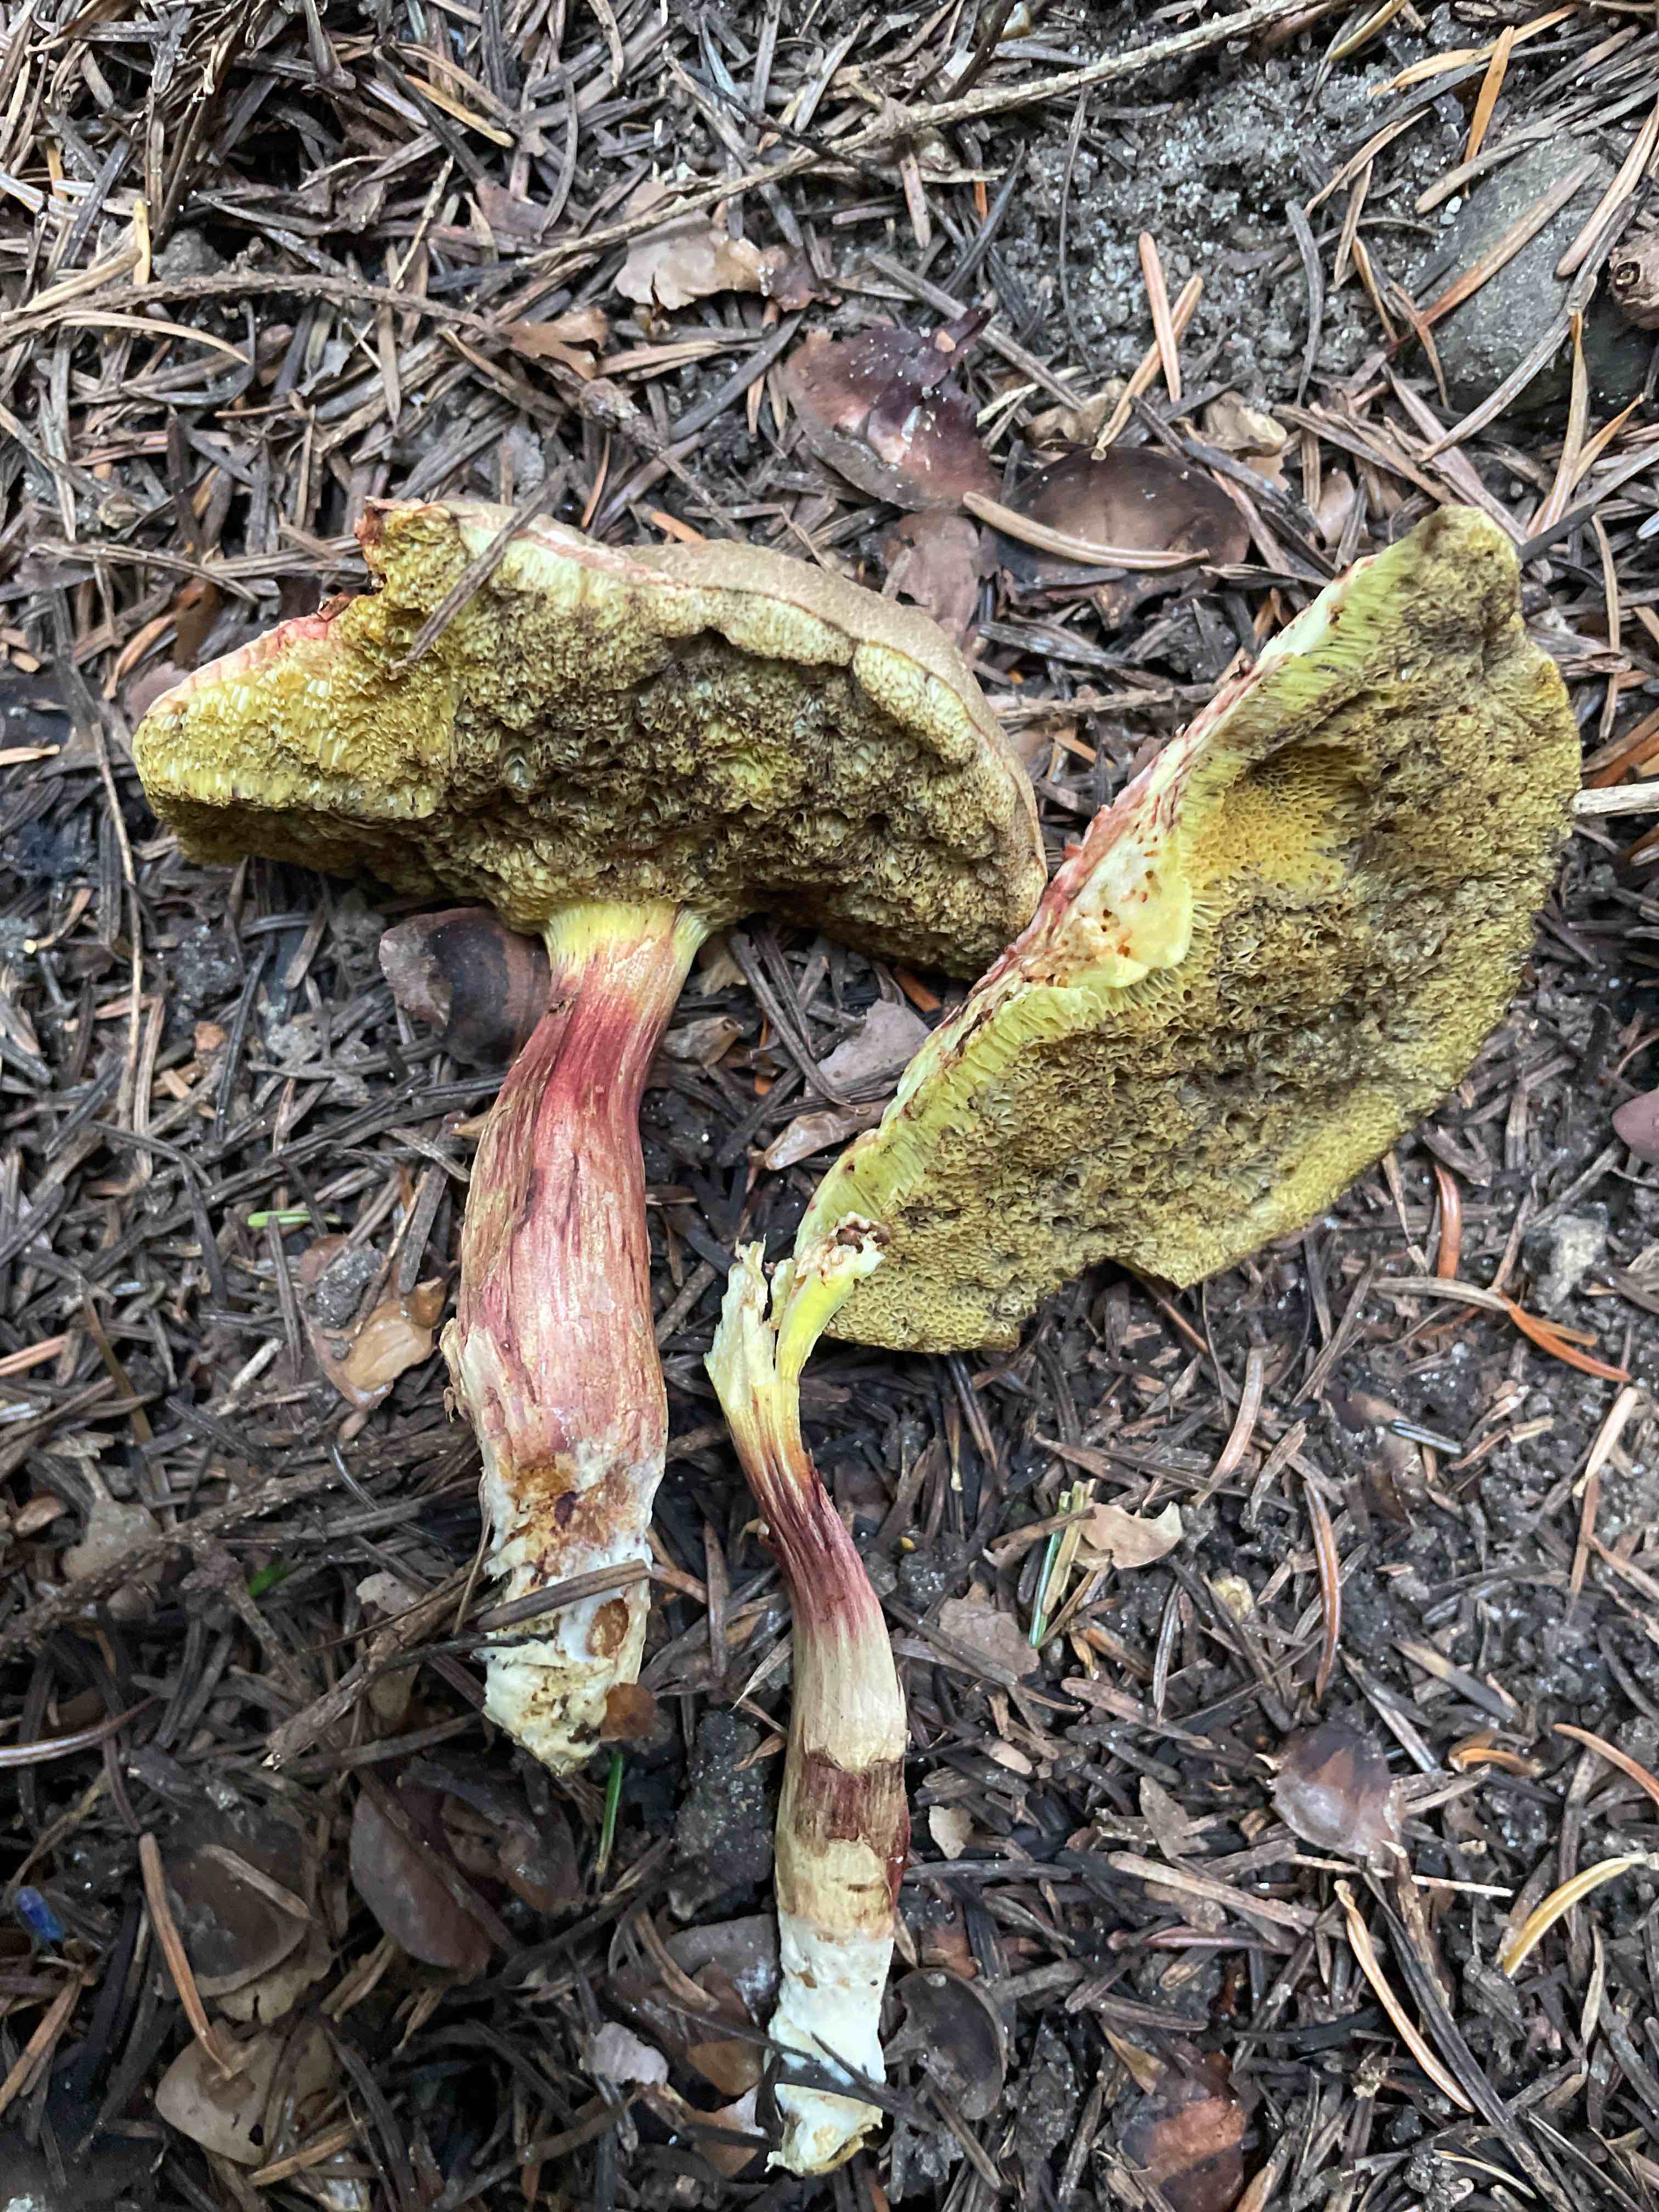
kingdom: Fungi
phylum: Basidiomycota
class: Agaricomycetes
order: Boletales
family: Boletaceae
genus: Xerocomellus
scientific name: Xerocomellus chrysenteron
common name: rødsprukken rørhat
